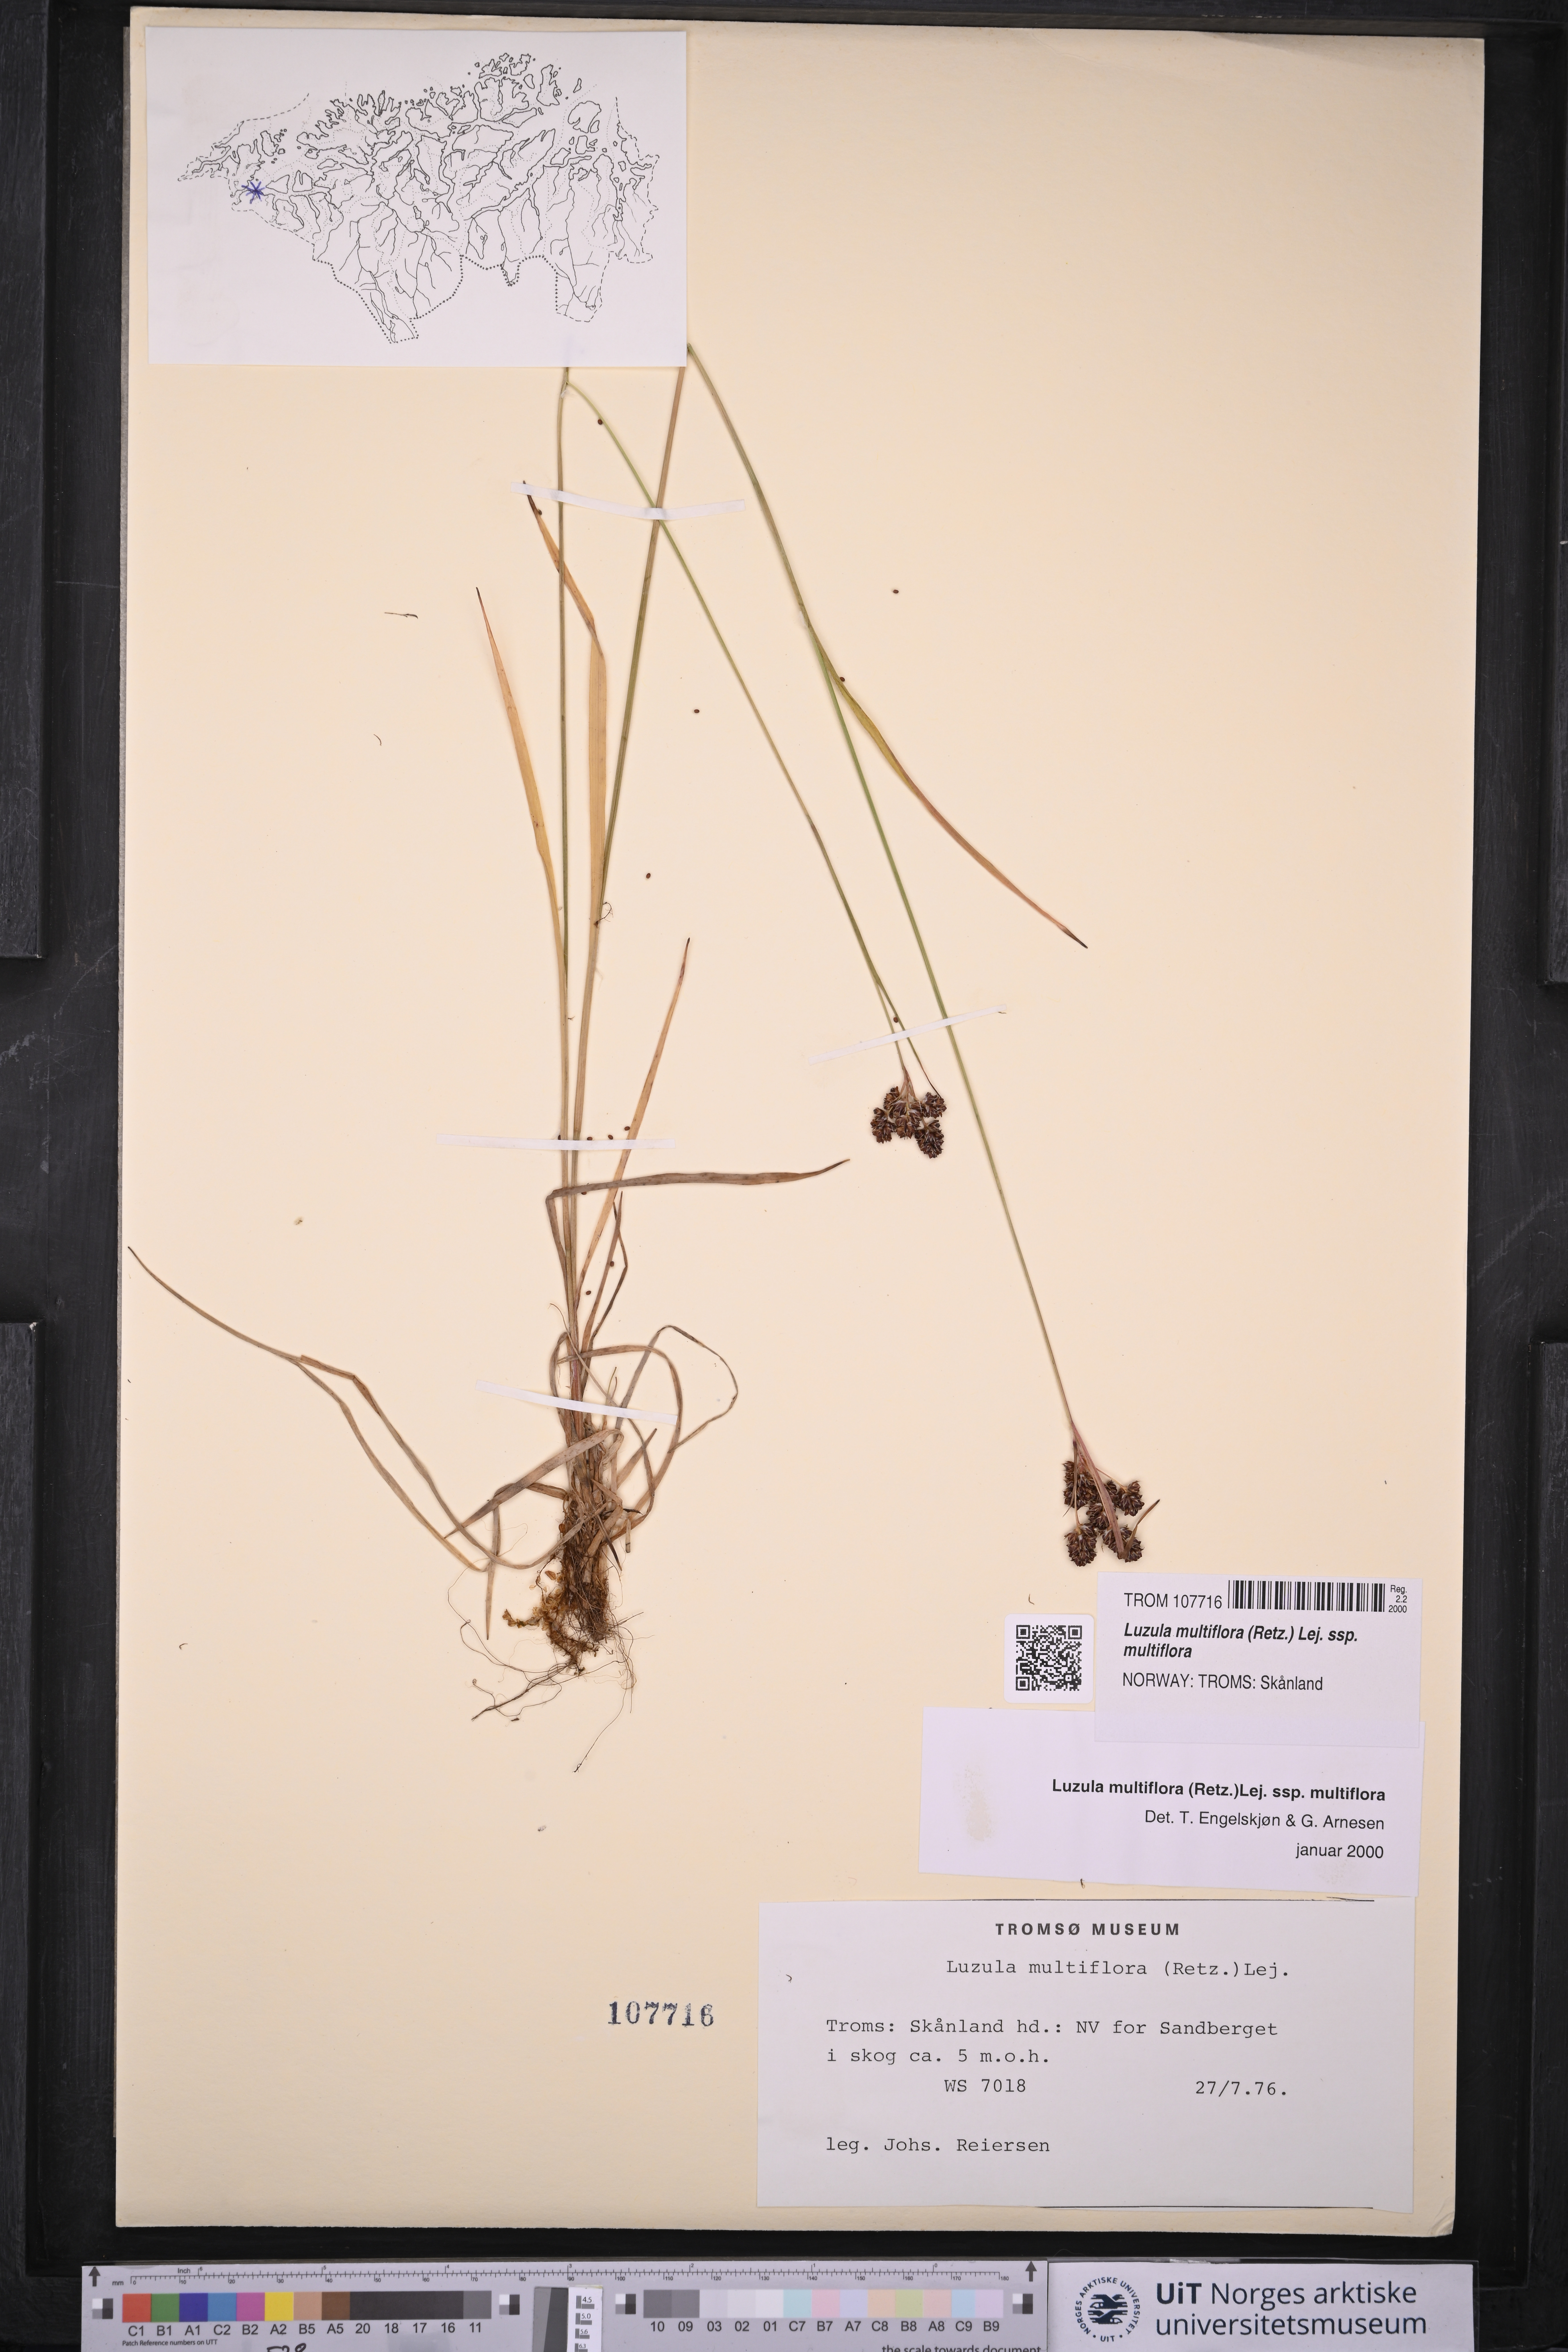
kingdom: Plantae
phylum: Tracheophyta
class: Liliopsida
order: Poales
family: Juncaceae
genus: Luzula
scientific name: Luzula multiflora
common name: Heath wood-rush
